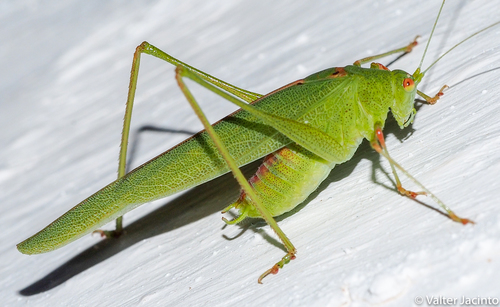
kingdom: Animalia
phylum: Arthropoda
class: Insecta
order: Orthoptera
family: Tettigoniidae
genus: Phaneroptera
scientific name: Phaneroptera nana
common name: Southern sickle bush-cricket
